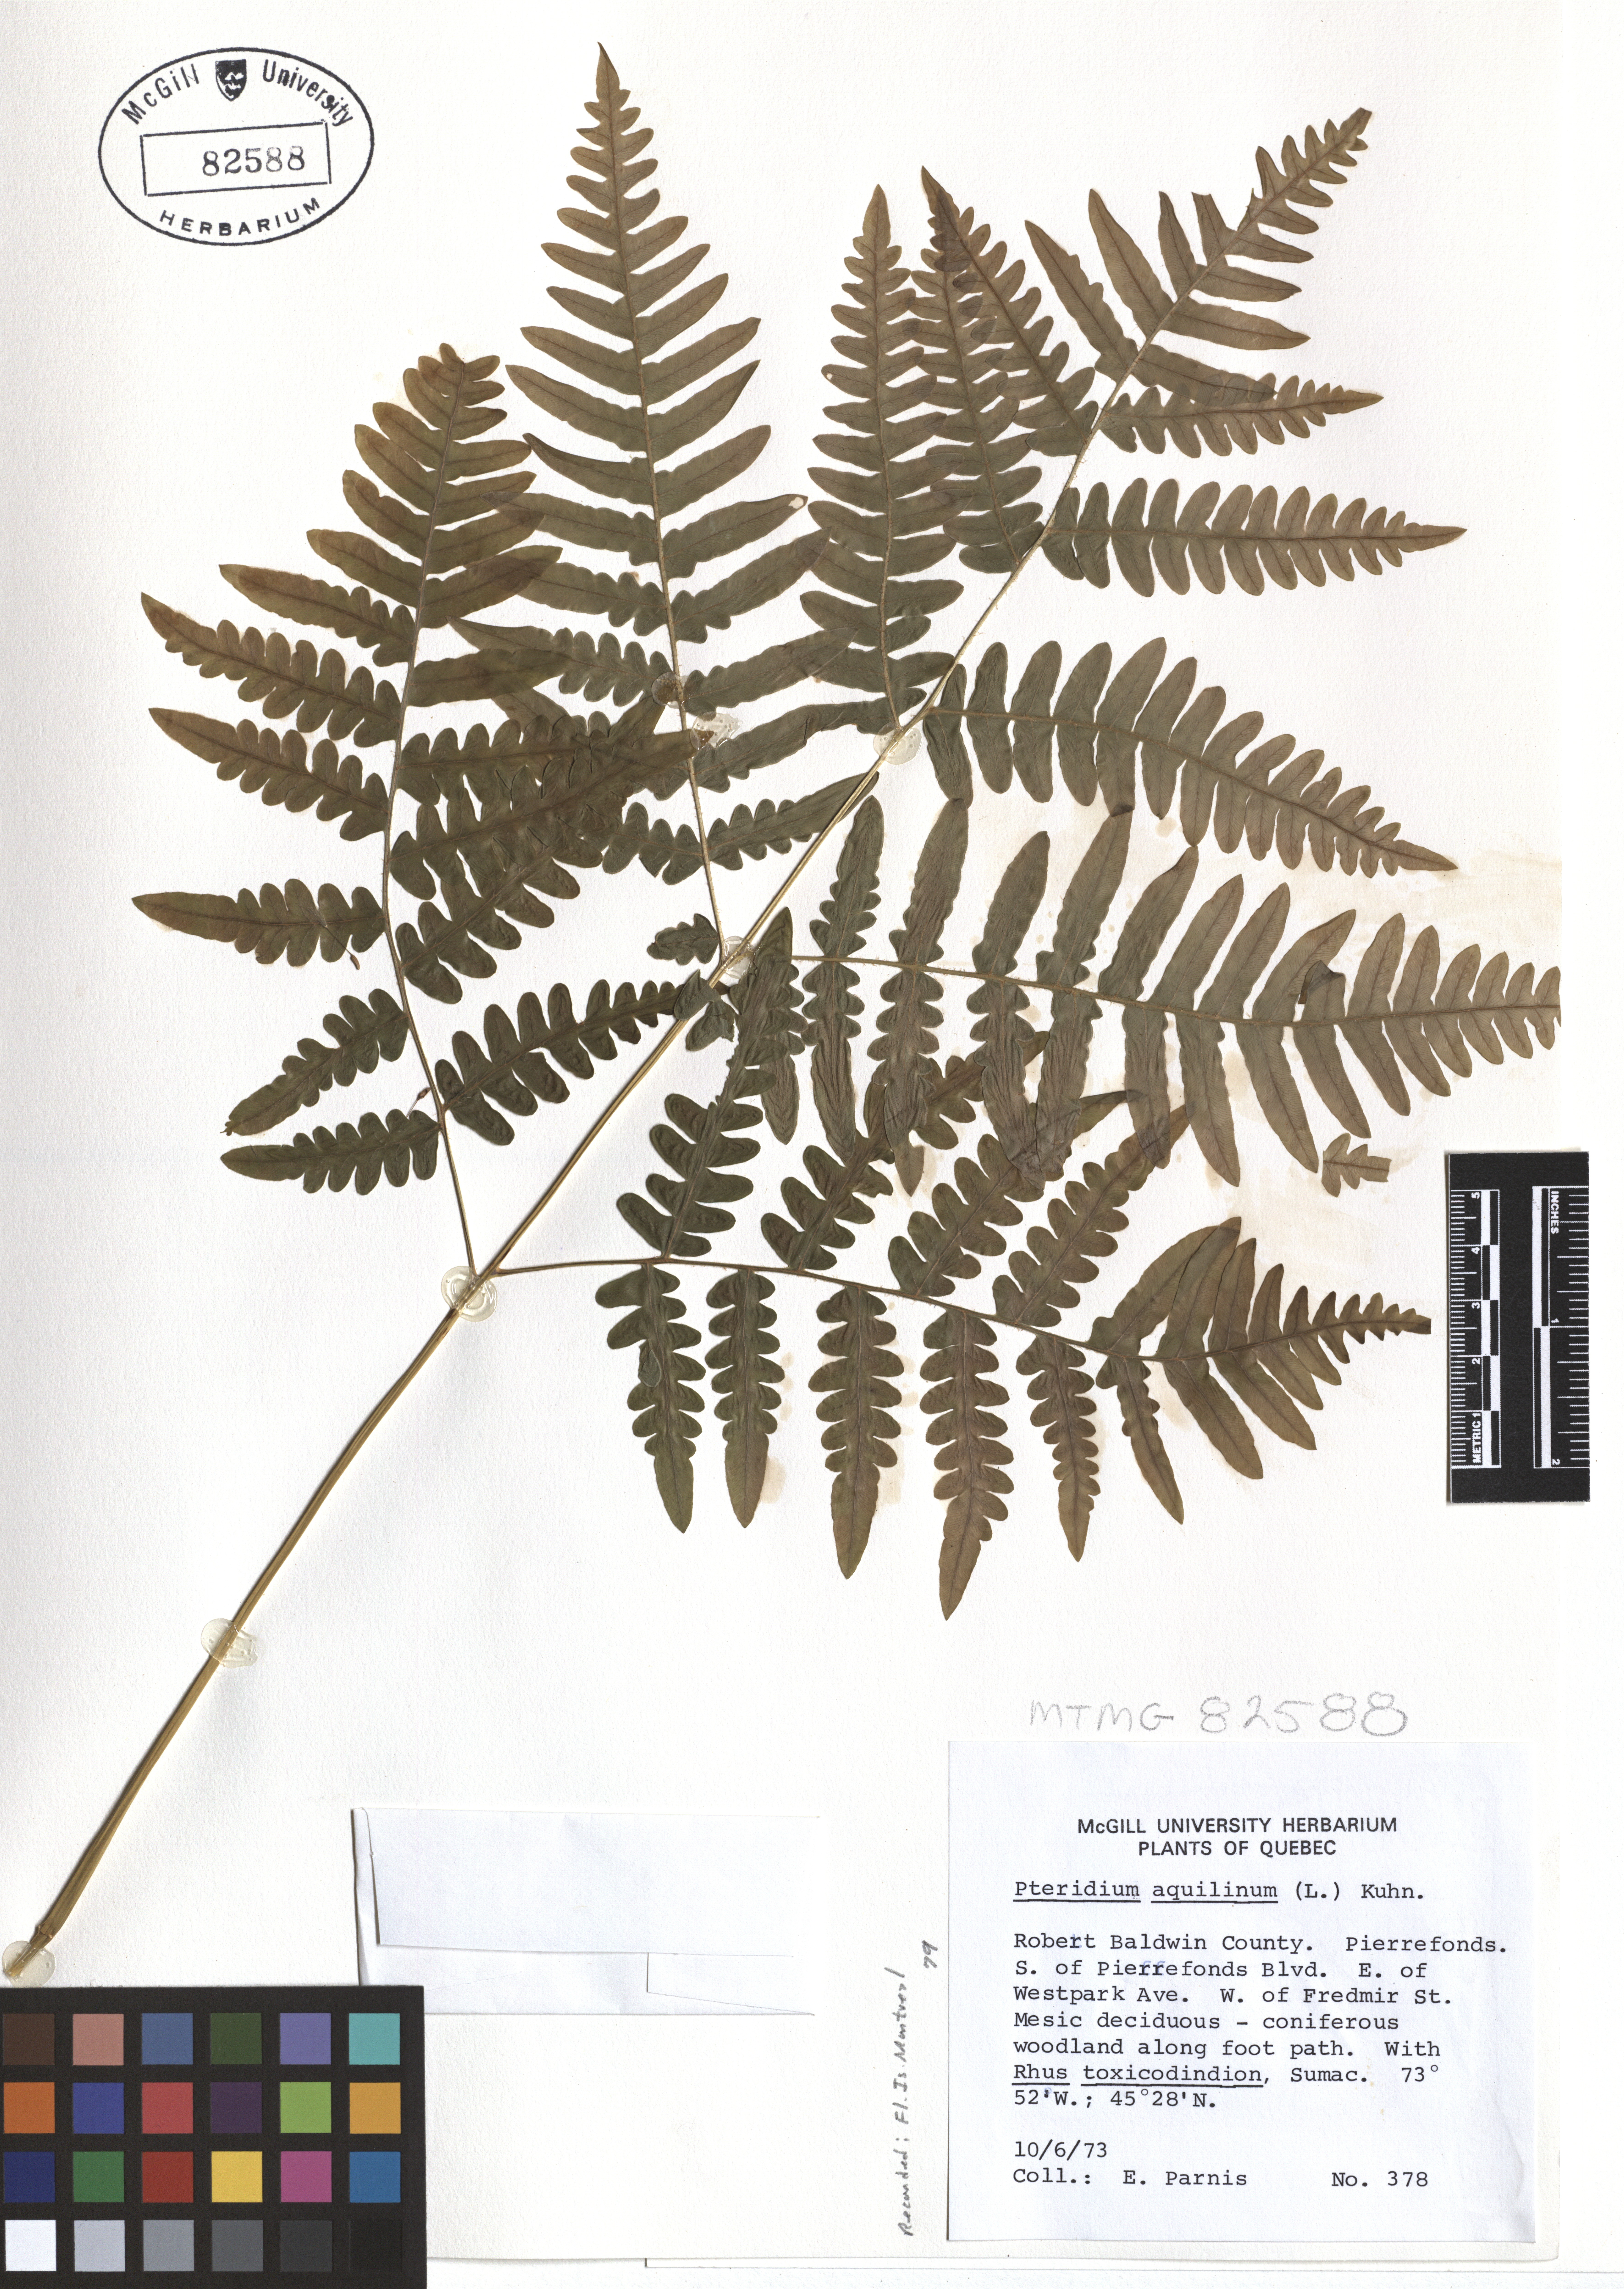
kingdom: Plantae
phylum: Tracheophyta
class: Polypodiopsida
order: Polypodiales
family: Dennstaedtiaceae
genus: Pteridium
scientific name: Pteridium aquilinum
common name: Bracken
